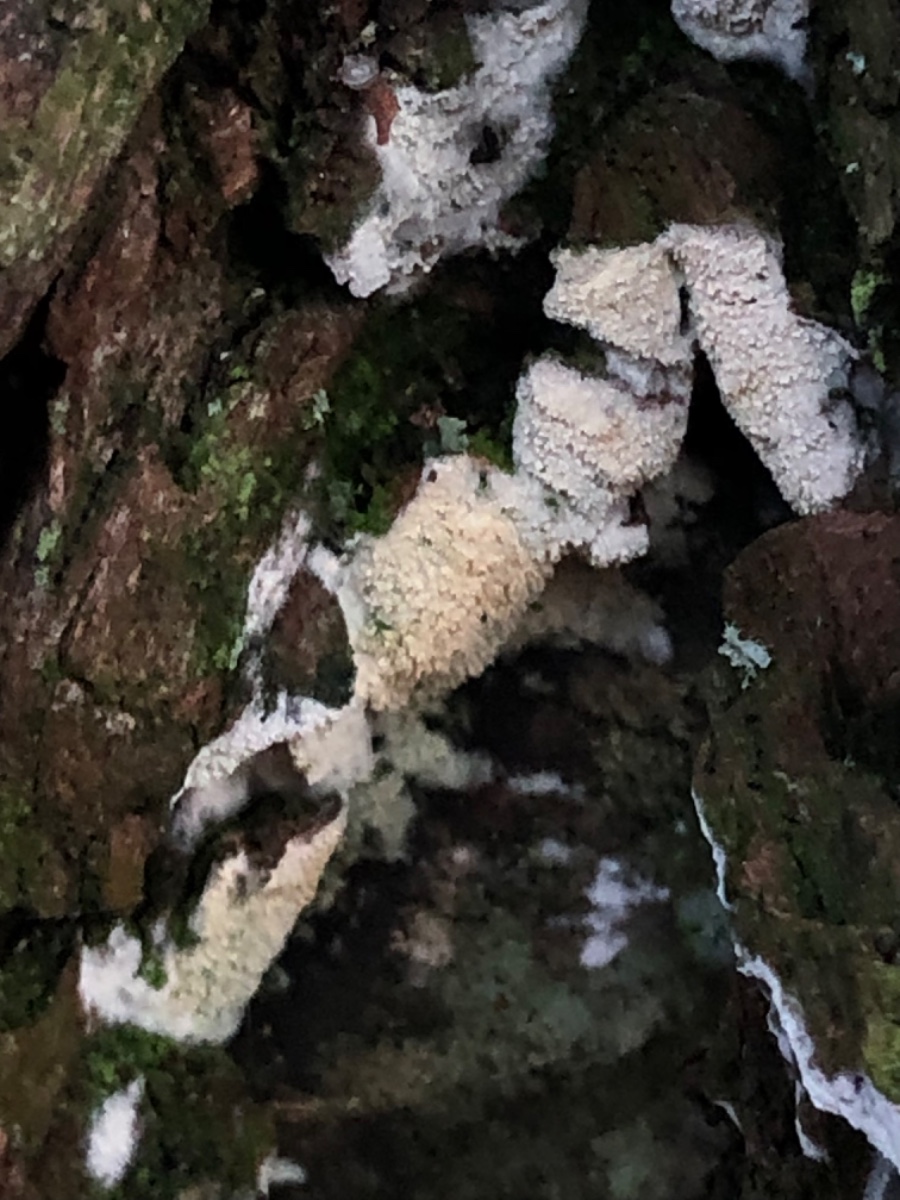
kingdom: Fungi
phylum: Basidiomycota
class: Agaricomycetes
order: Corticiales
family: Corticiaceae
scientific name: Corticiaceae
